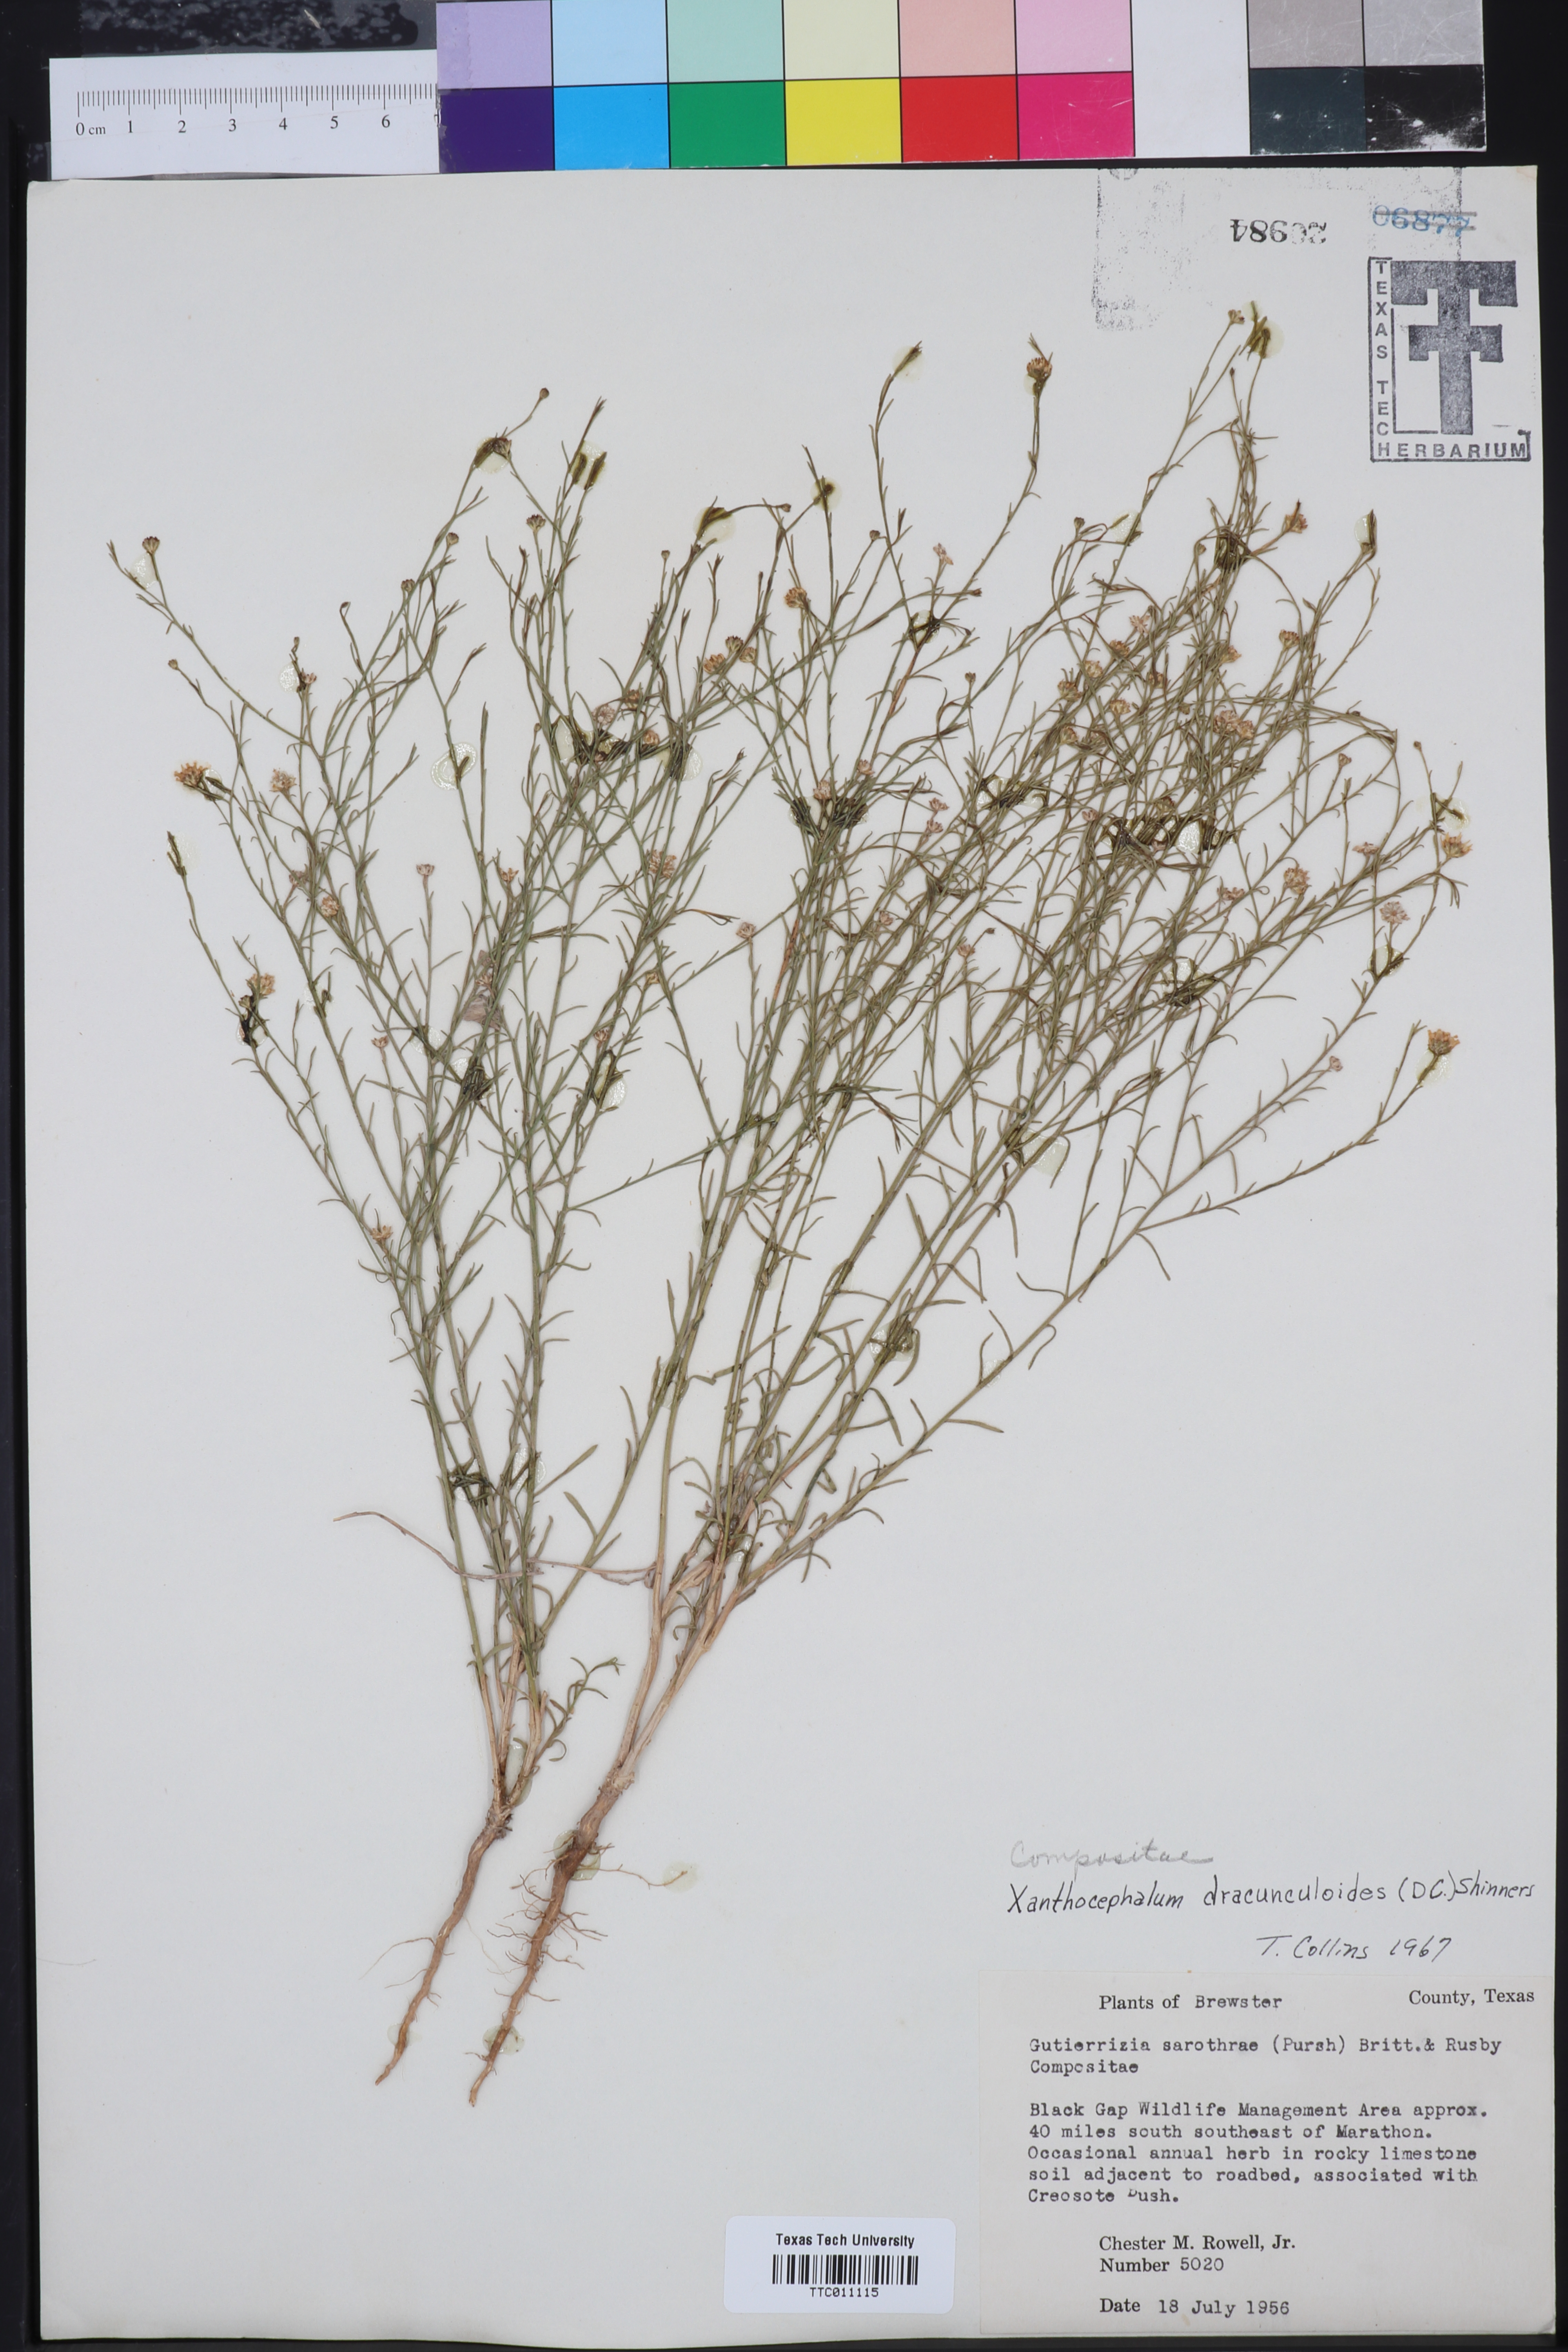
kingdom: Plantae
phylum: Tracheophyta
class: Magnoliopsida
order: Asterales
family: Asteraceae
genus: Amphiachyris
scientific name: Amphiachyris dracunculoides
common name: Broomweed
